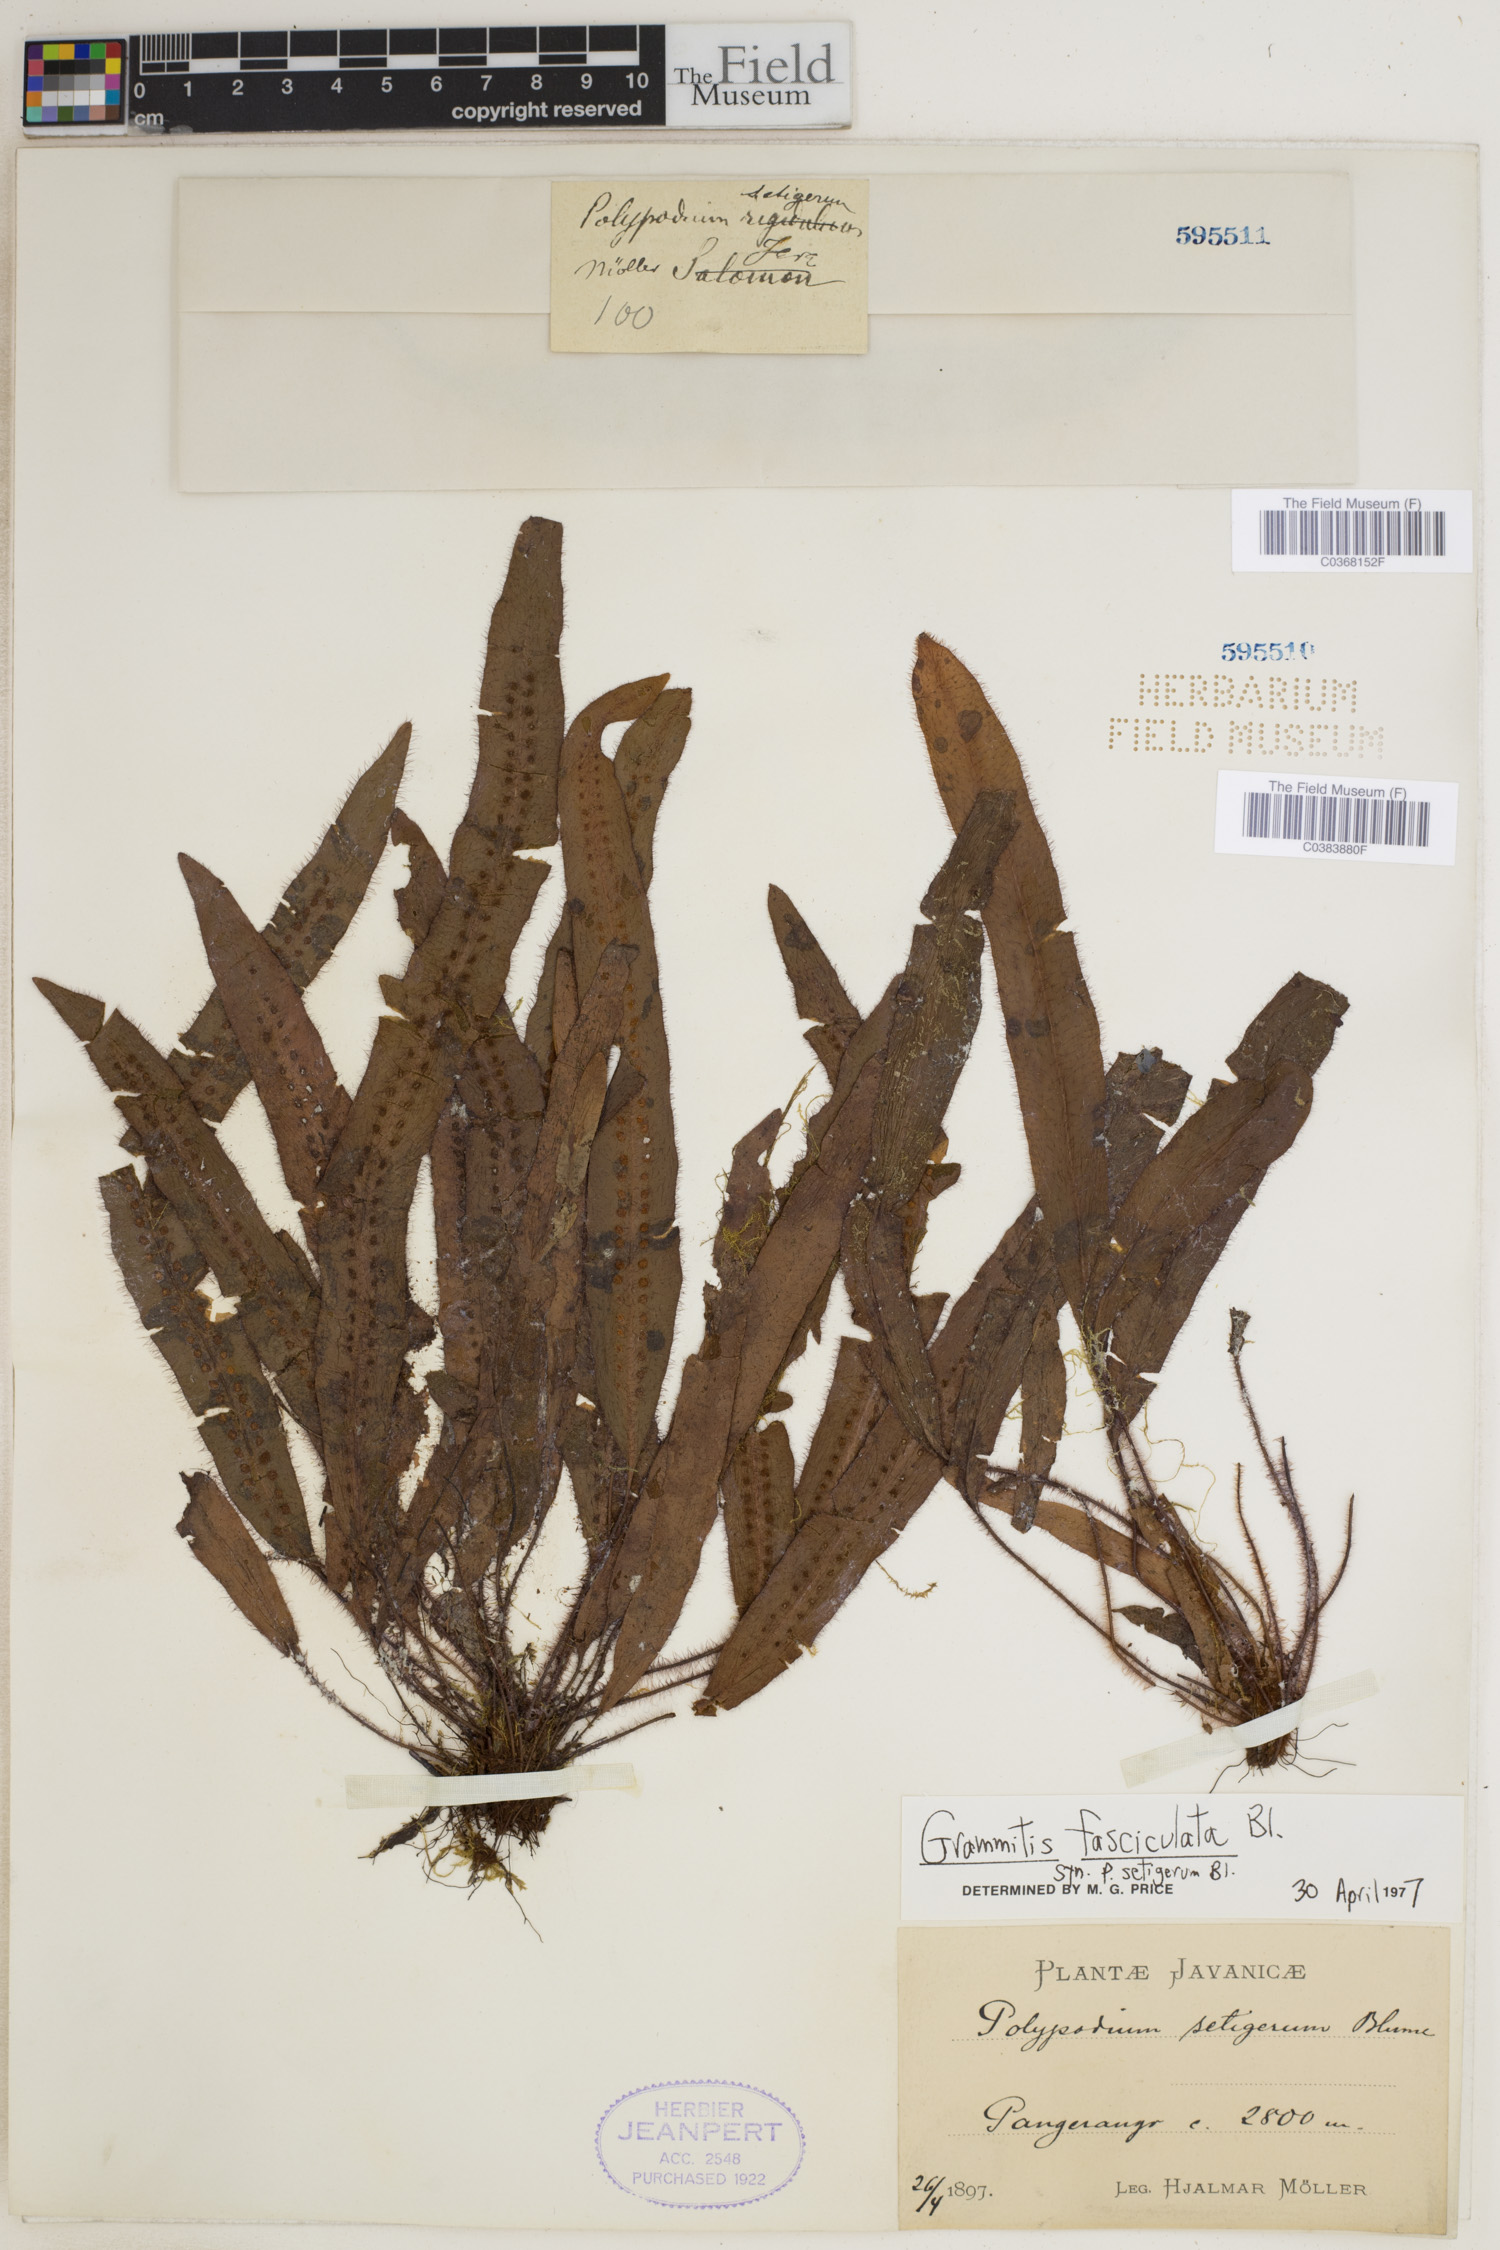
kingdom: Plantae
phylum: Tracheophyta
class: Polypodiopsida
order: Polypodiales
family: Polypodiaceae
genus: Oreogrammitis
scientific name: Oreogrammitis setigera
